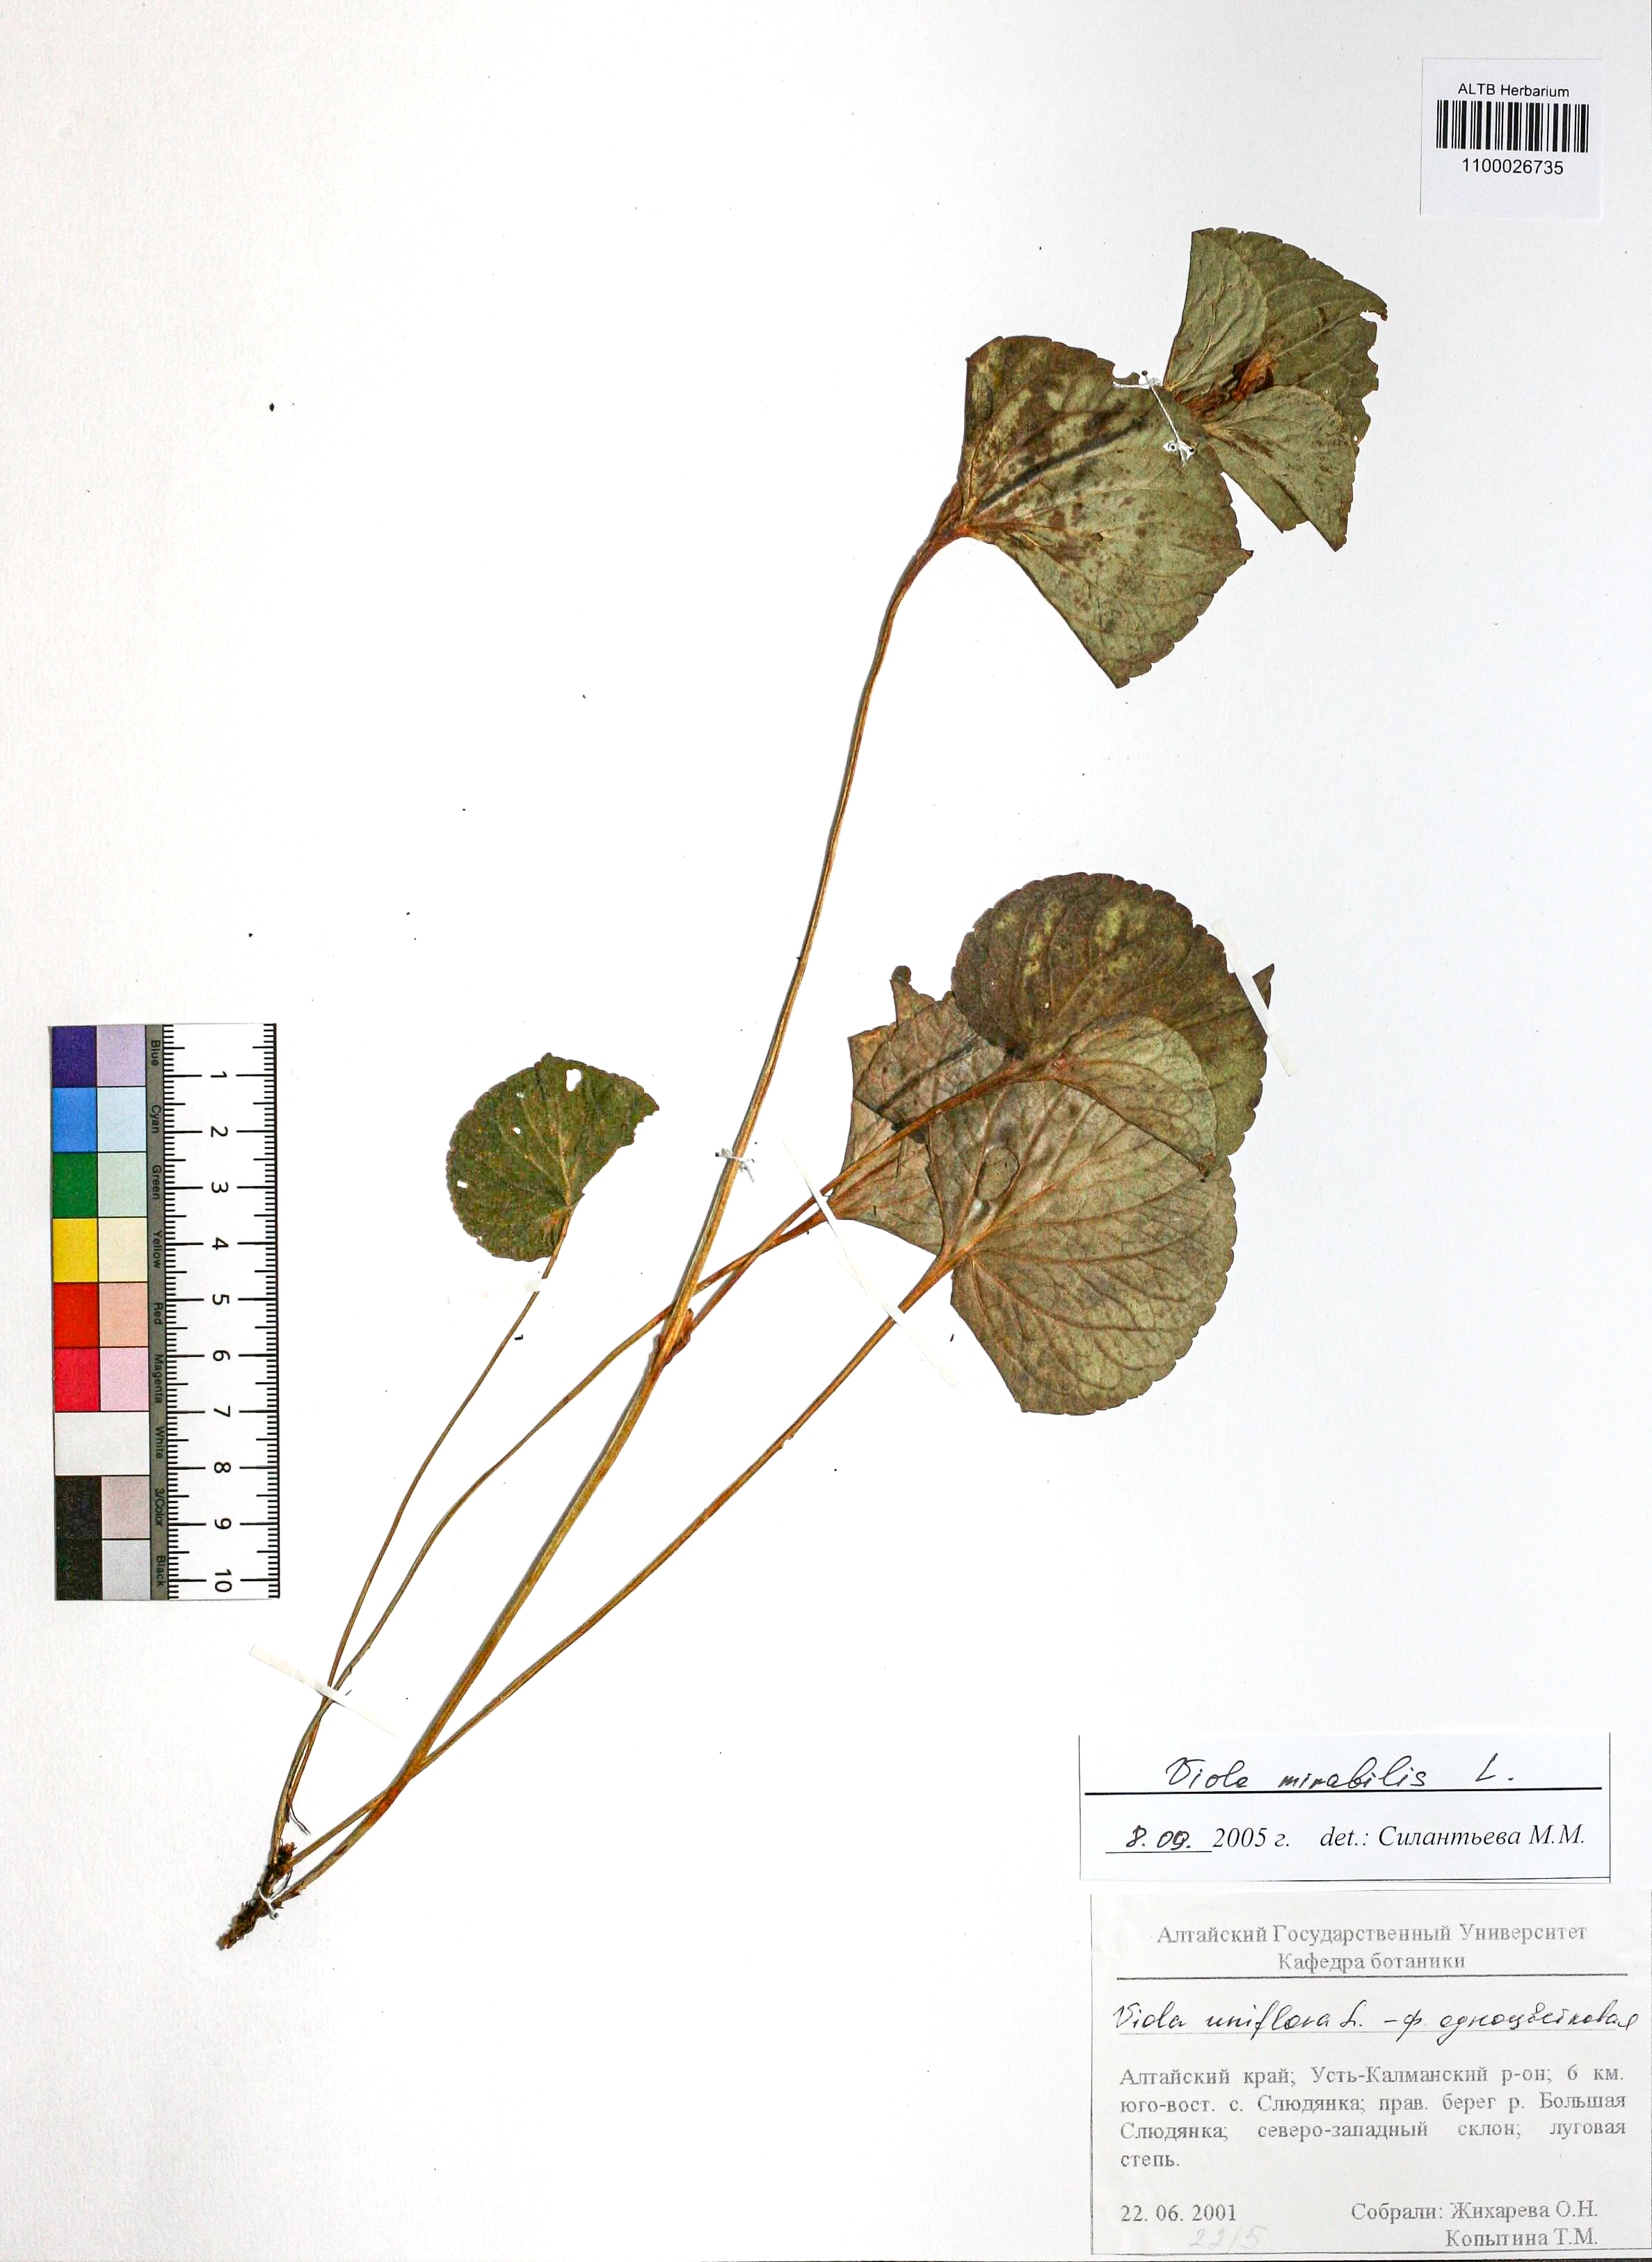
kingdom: Plantae
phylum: Tracheophyta
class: Magnoliopsida
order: Malpighiales
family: Violaceae
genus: Viola
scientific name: Viola mirabilis
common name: Wonder violet
